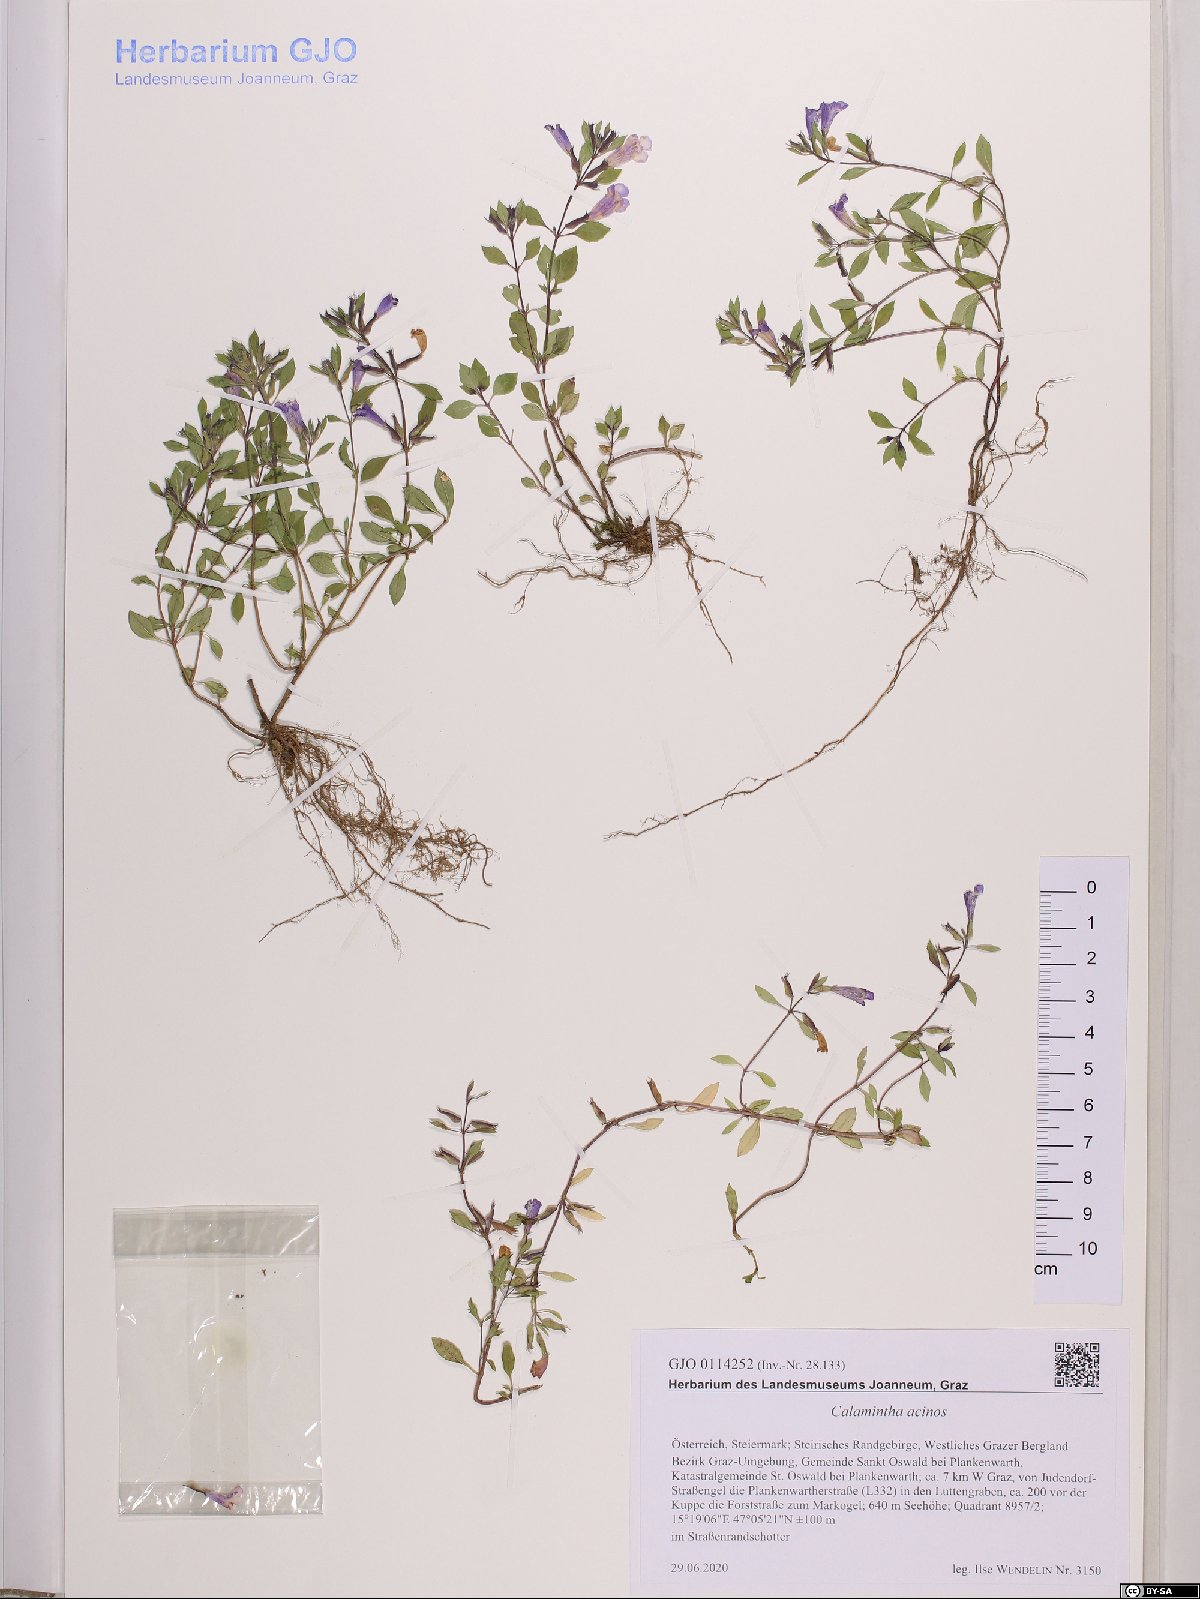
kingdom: Plantae
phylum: Tracheophyta
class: Magnoliopsida
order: Lamiales
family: Lamiaceae
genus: Clinopodium
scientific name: Clinopodium acinos
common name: Basil thyme
